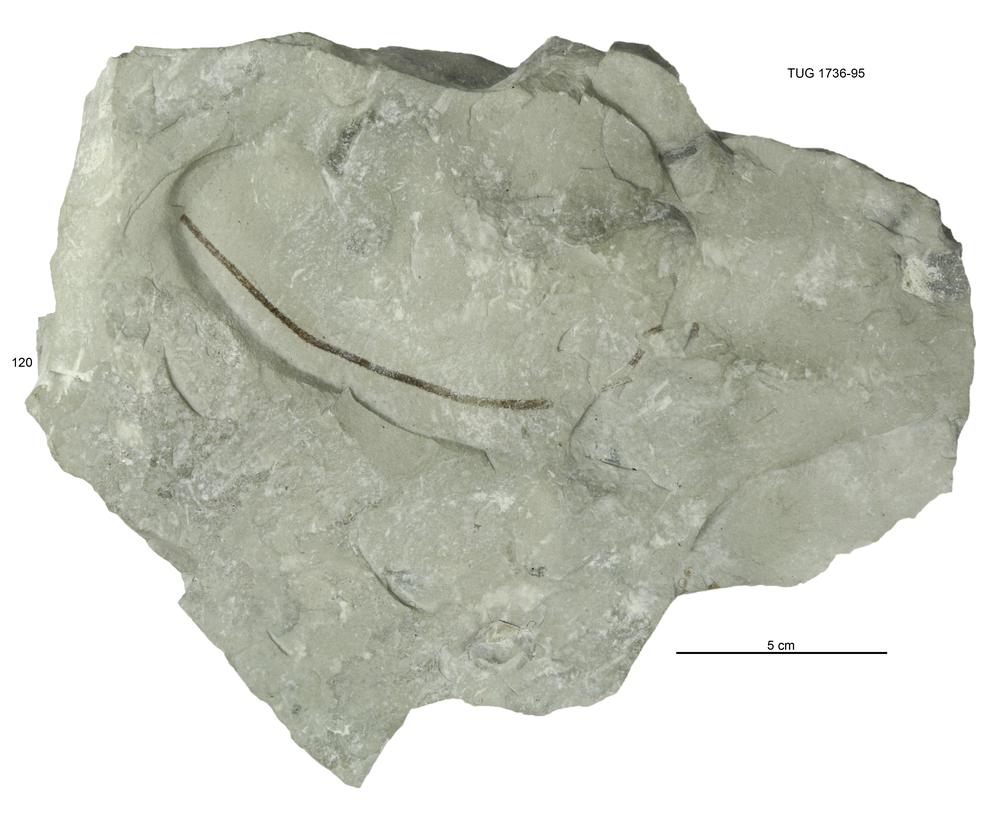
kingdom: Animalia
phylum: Echinodermata
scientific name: Echinodermata
